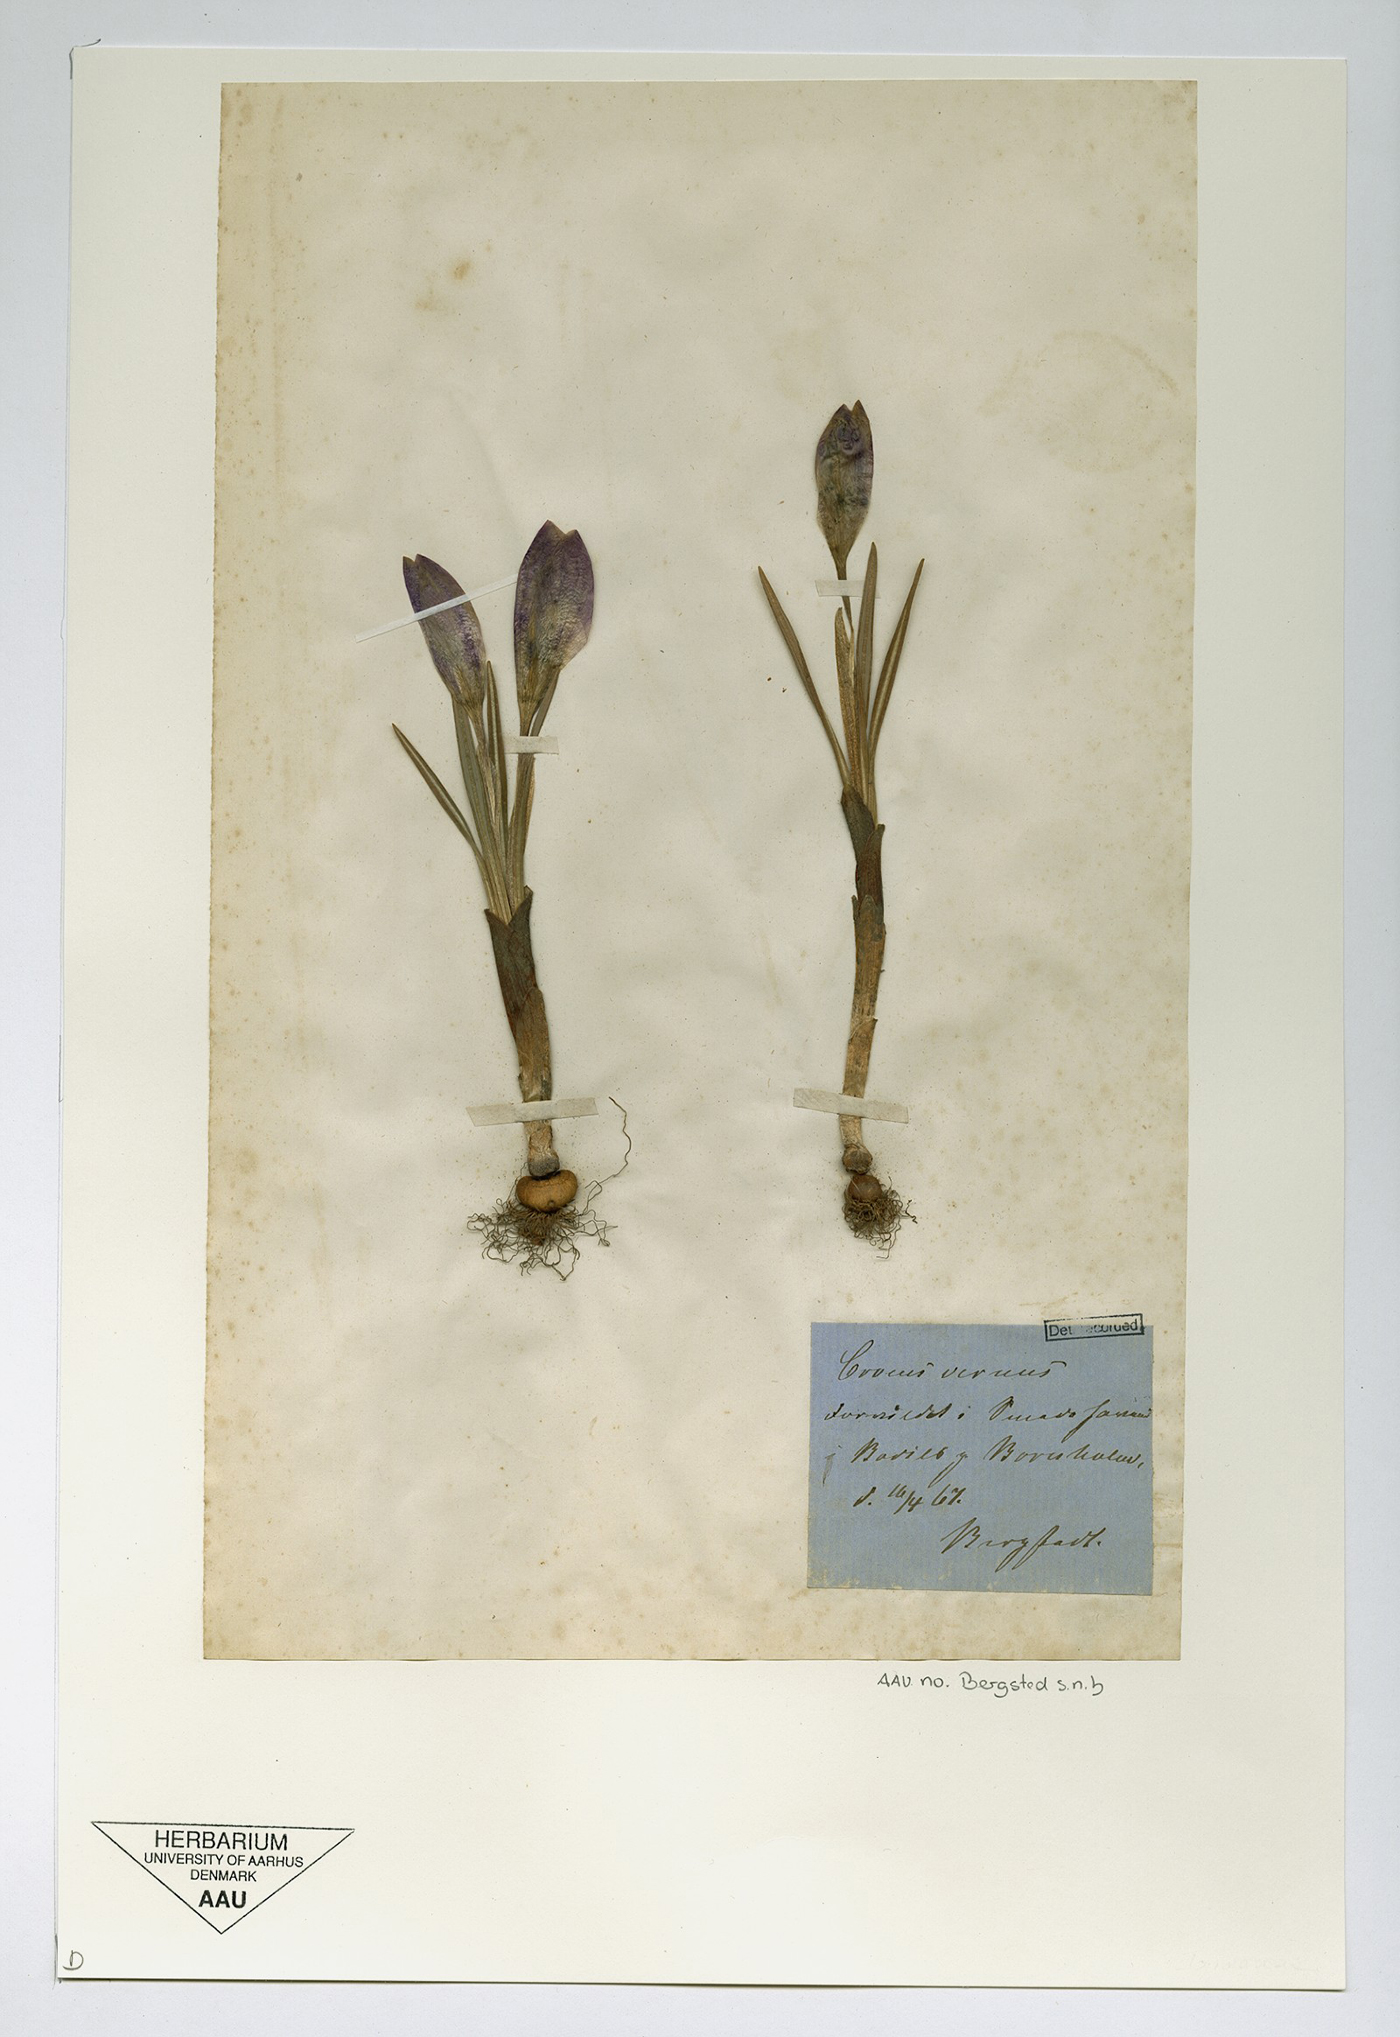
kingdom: Plantae
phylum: Tracheophyta
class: Liliopsida
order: Asparagales
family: Iridaceae
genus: Crocus
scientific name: Crocus neapolitanus
